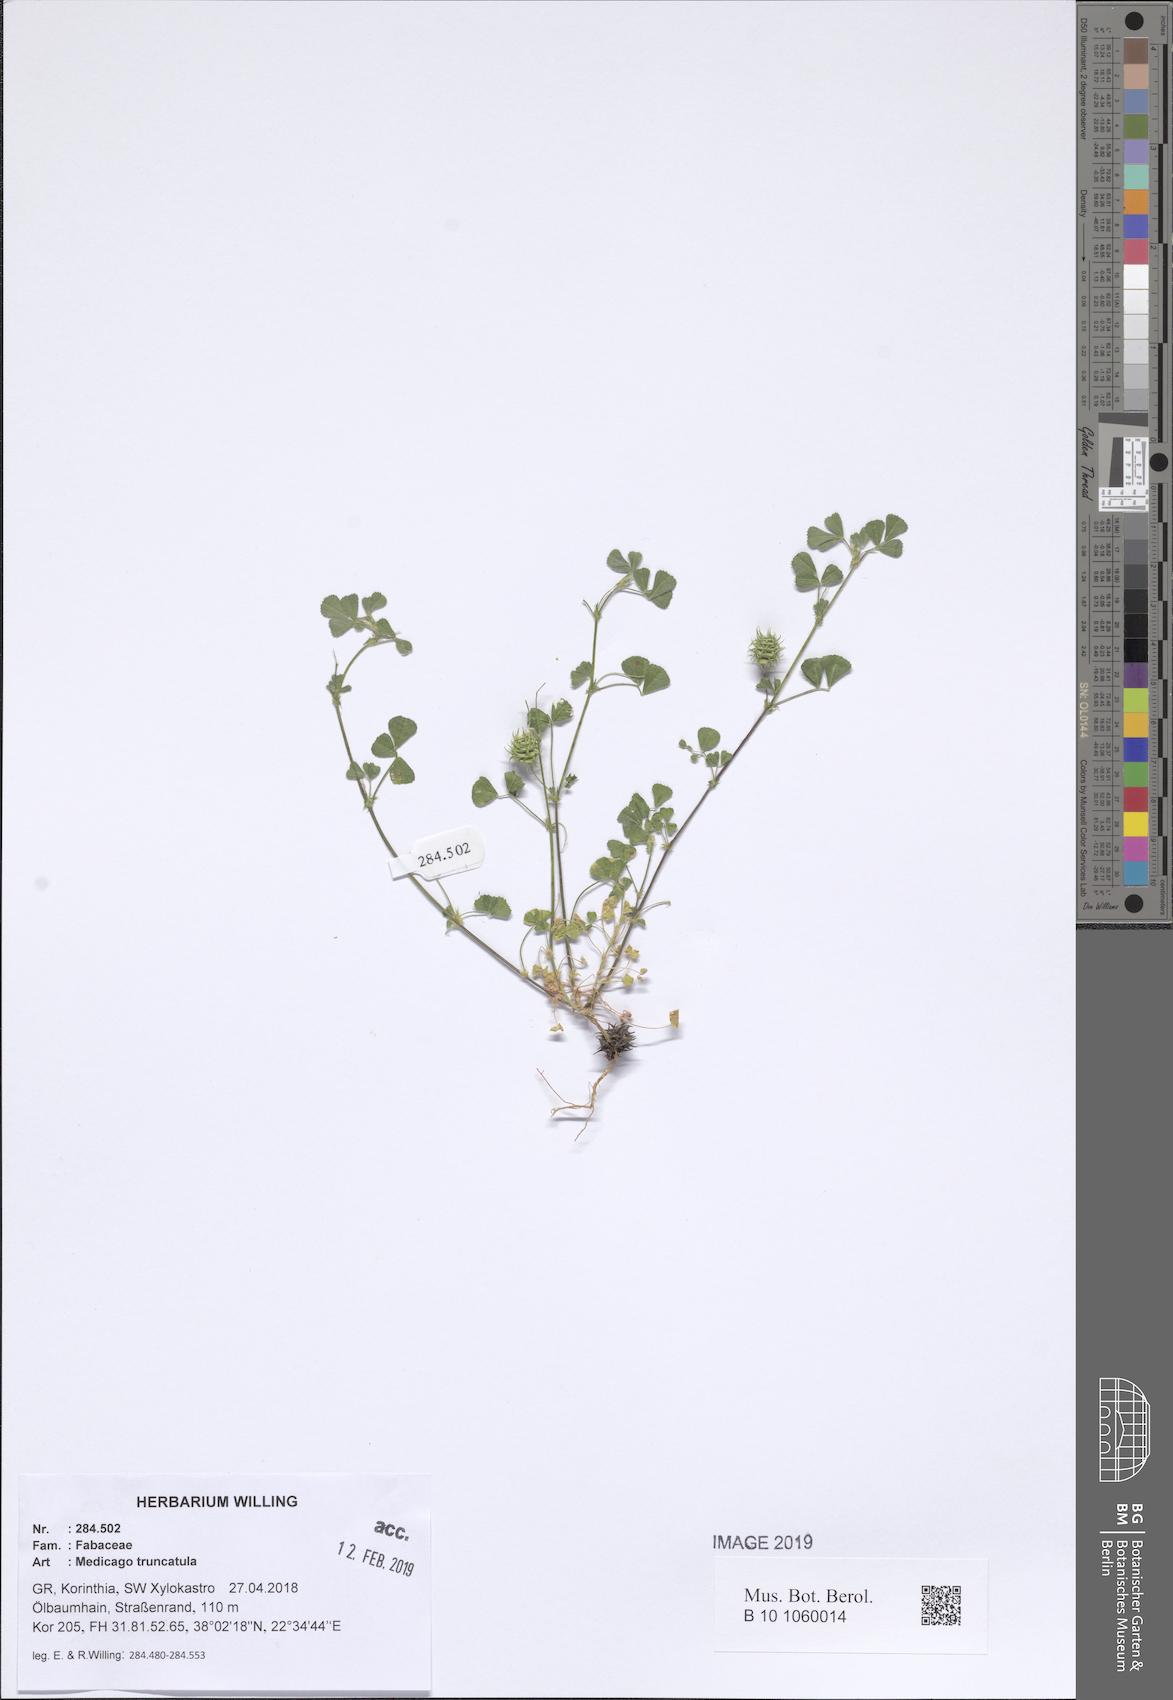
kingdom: Plantae
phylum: Tracheophyta
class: Magnoliopsida
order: Fabales
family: Fabaceae
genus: Medicago
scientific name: Medicago truncatula
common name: Strong-spined medick
